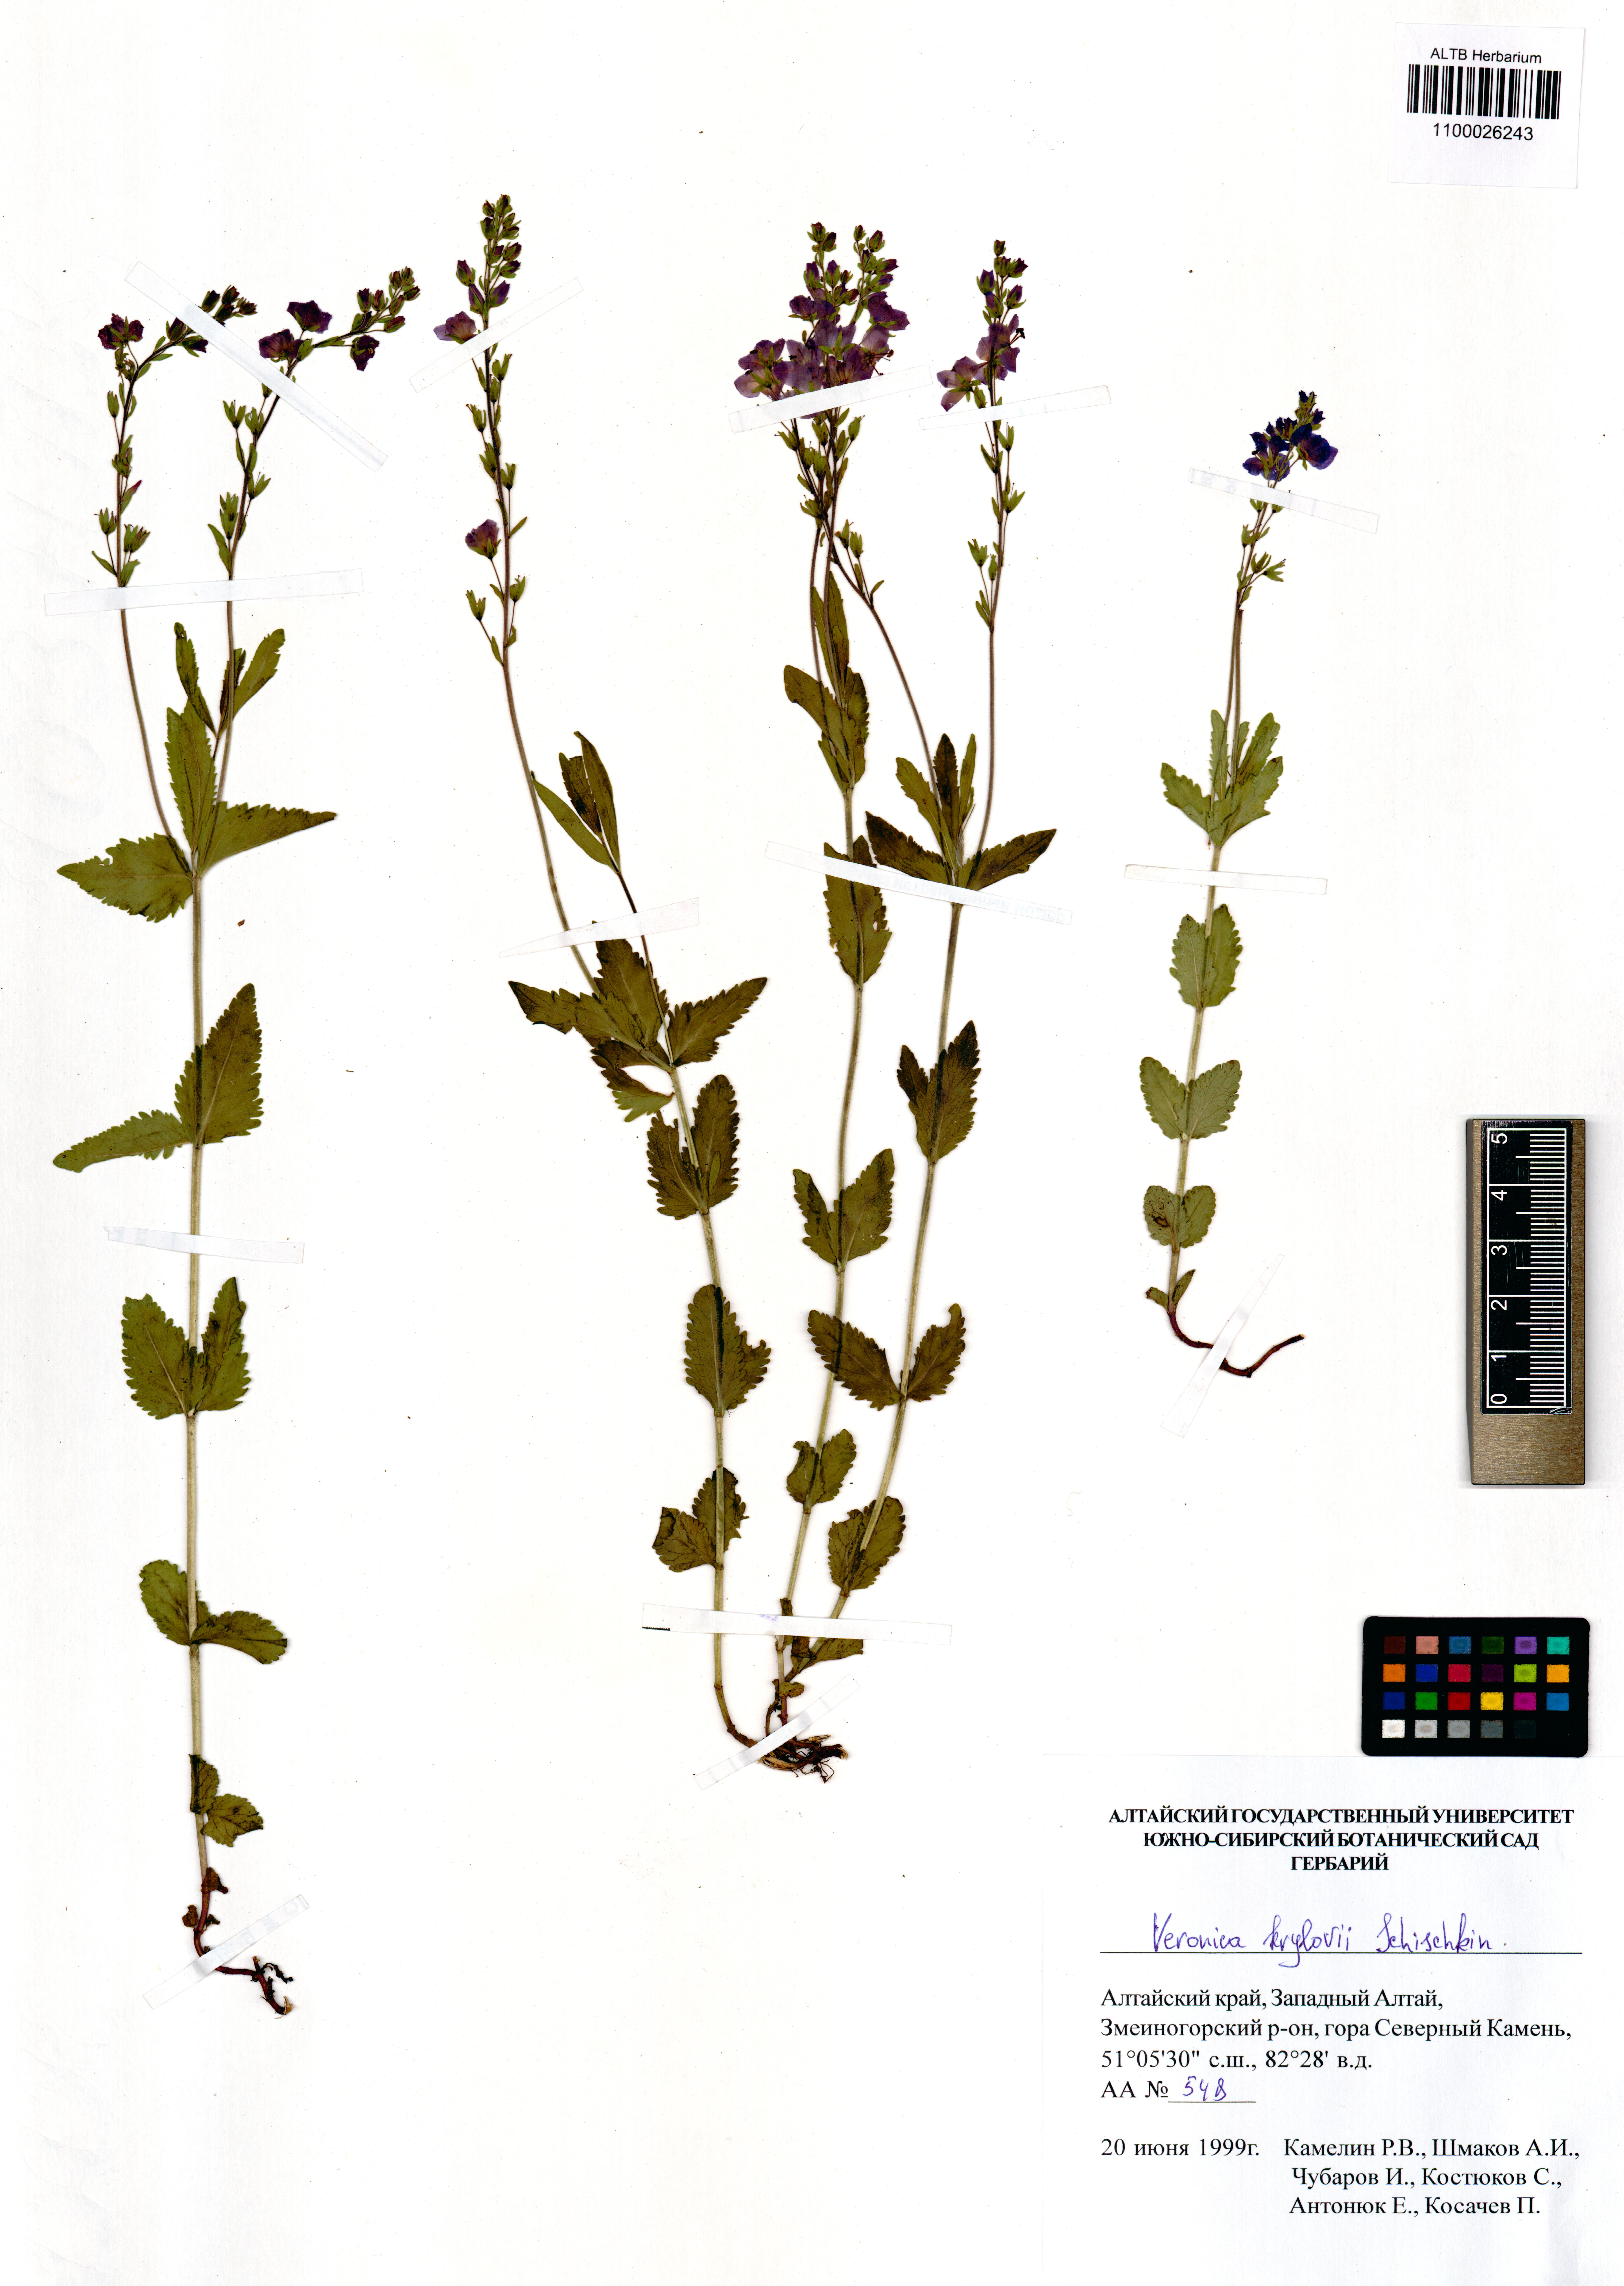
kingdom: Plantae
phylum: Tracheophyta
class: Magnoliopsida
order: Lamiales
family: Plantaginaceae
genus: Veronica
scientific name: Veronica krylovii
